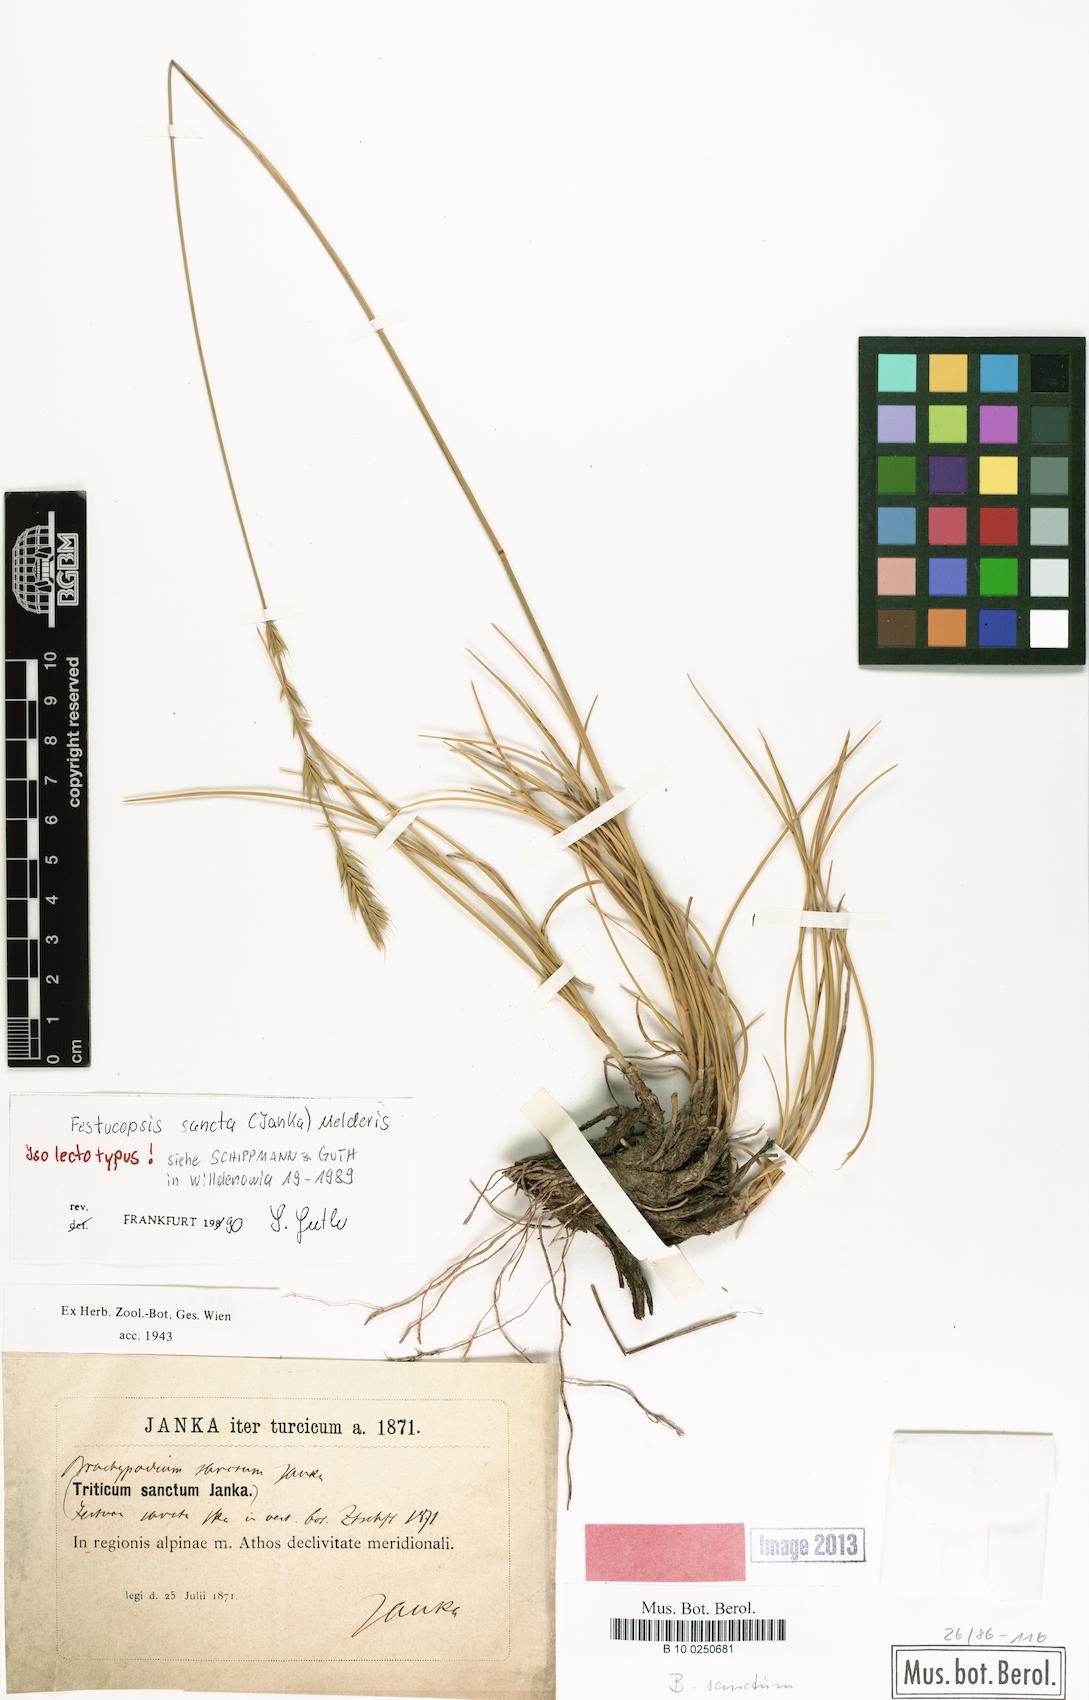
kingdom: Plantae
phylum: Tracheophyta
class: Liliopsida
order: Poales
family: Poaceae
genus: Peridictyon
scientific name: Peridictyon sanctum
